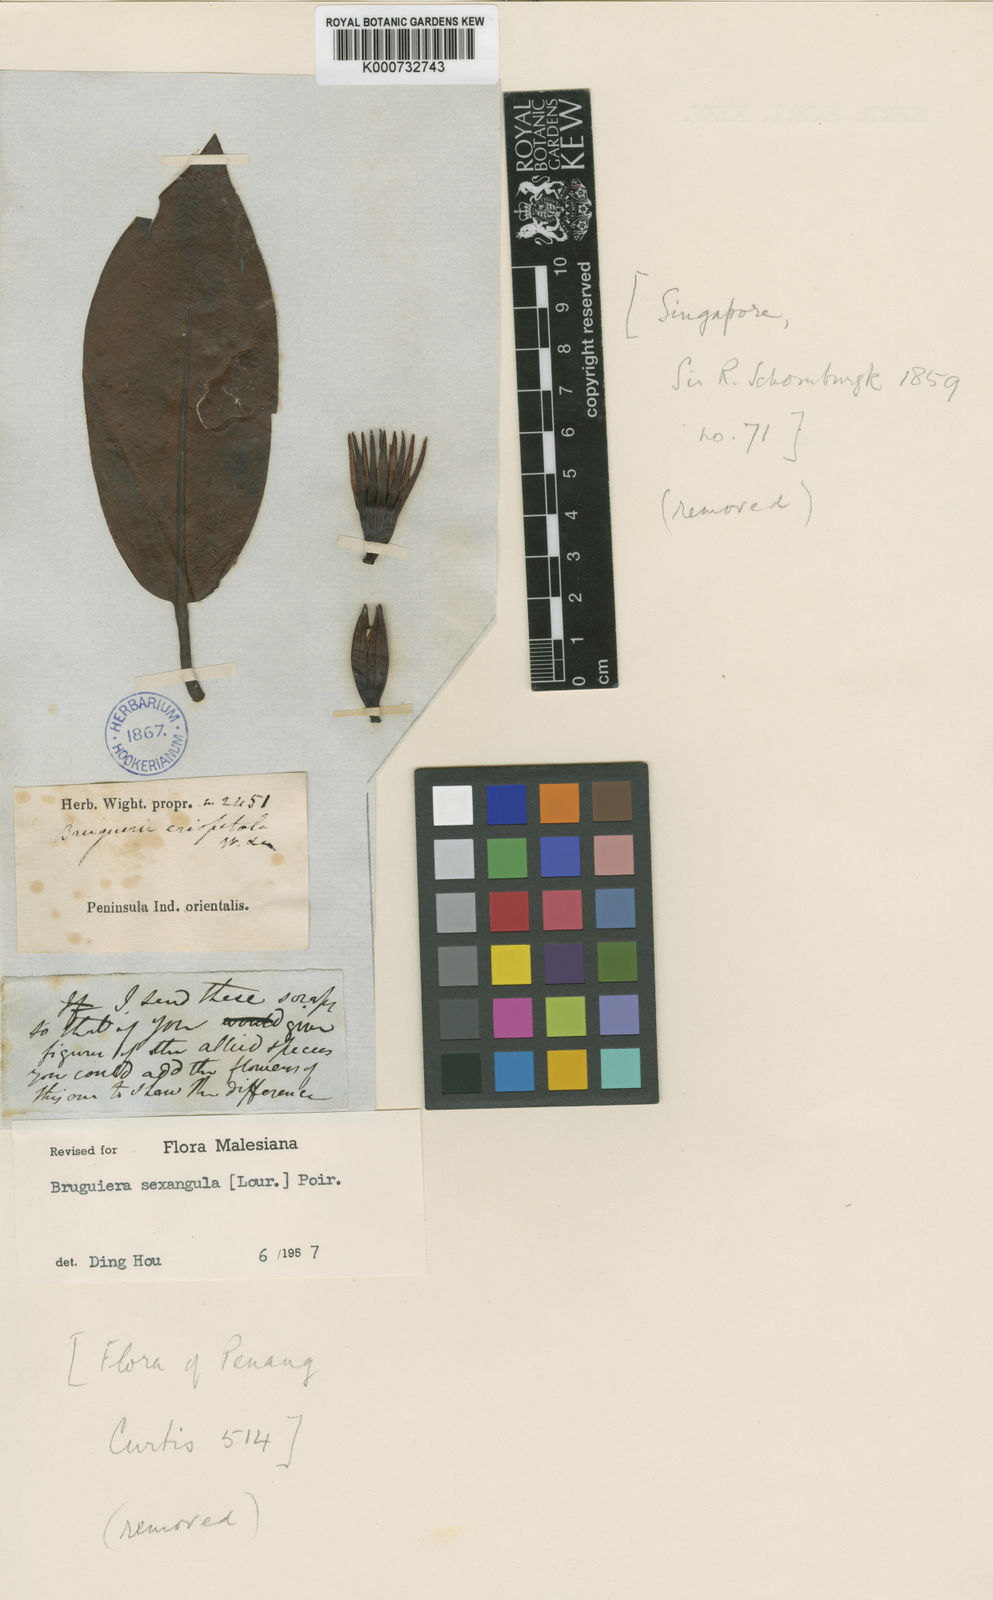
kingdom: Plantae
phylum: Tracheophyta
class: Magnoliopsida
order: Malpighiales
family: Rhizophoraceae
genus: Bruguiera
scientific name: Bruguiera sexangula
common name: Oriental mangrove
